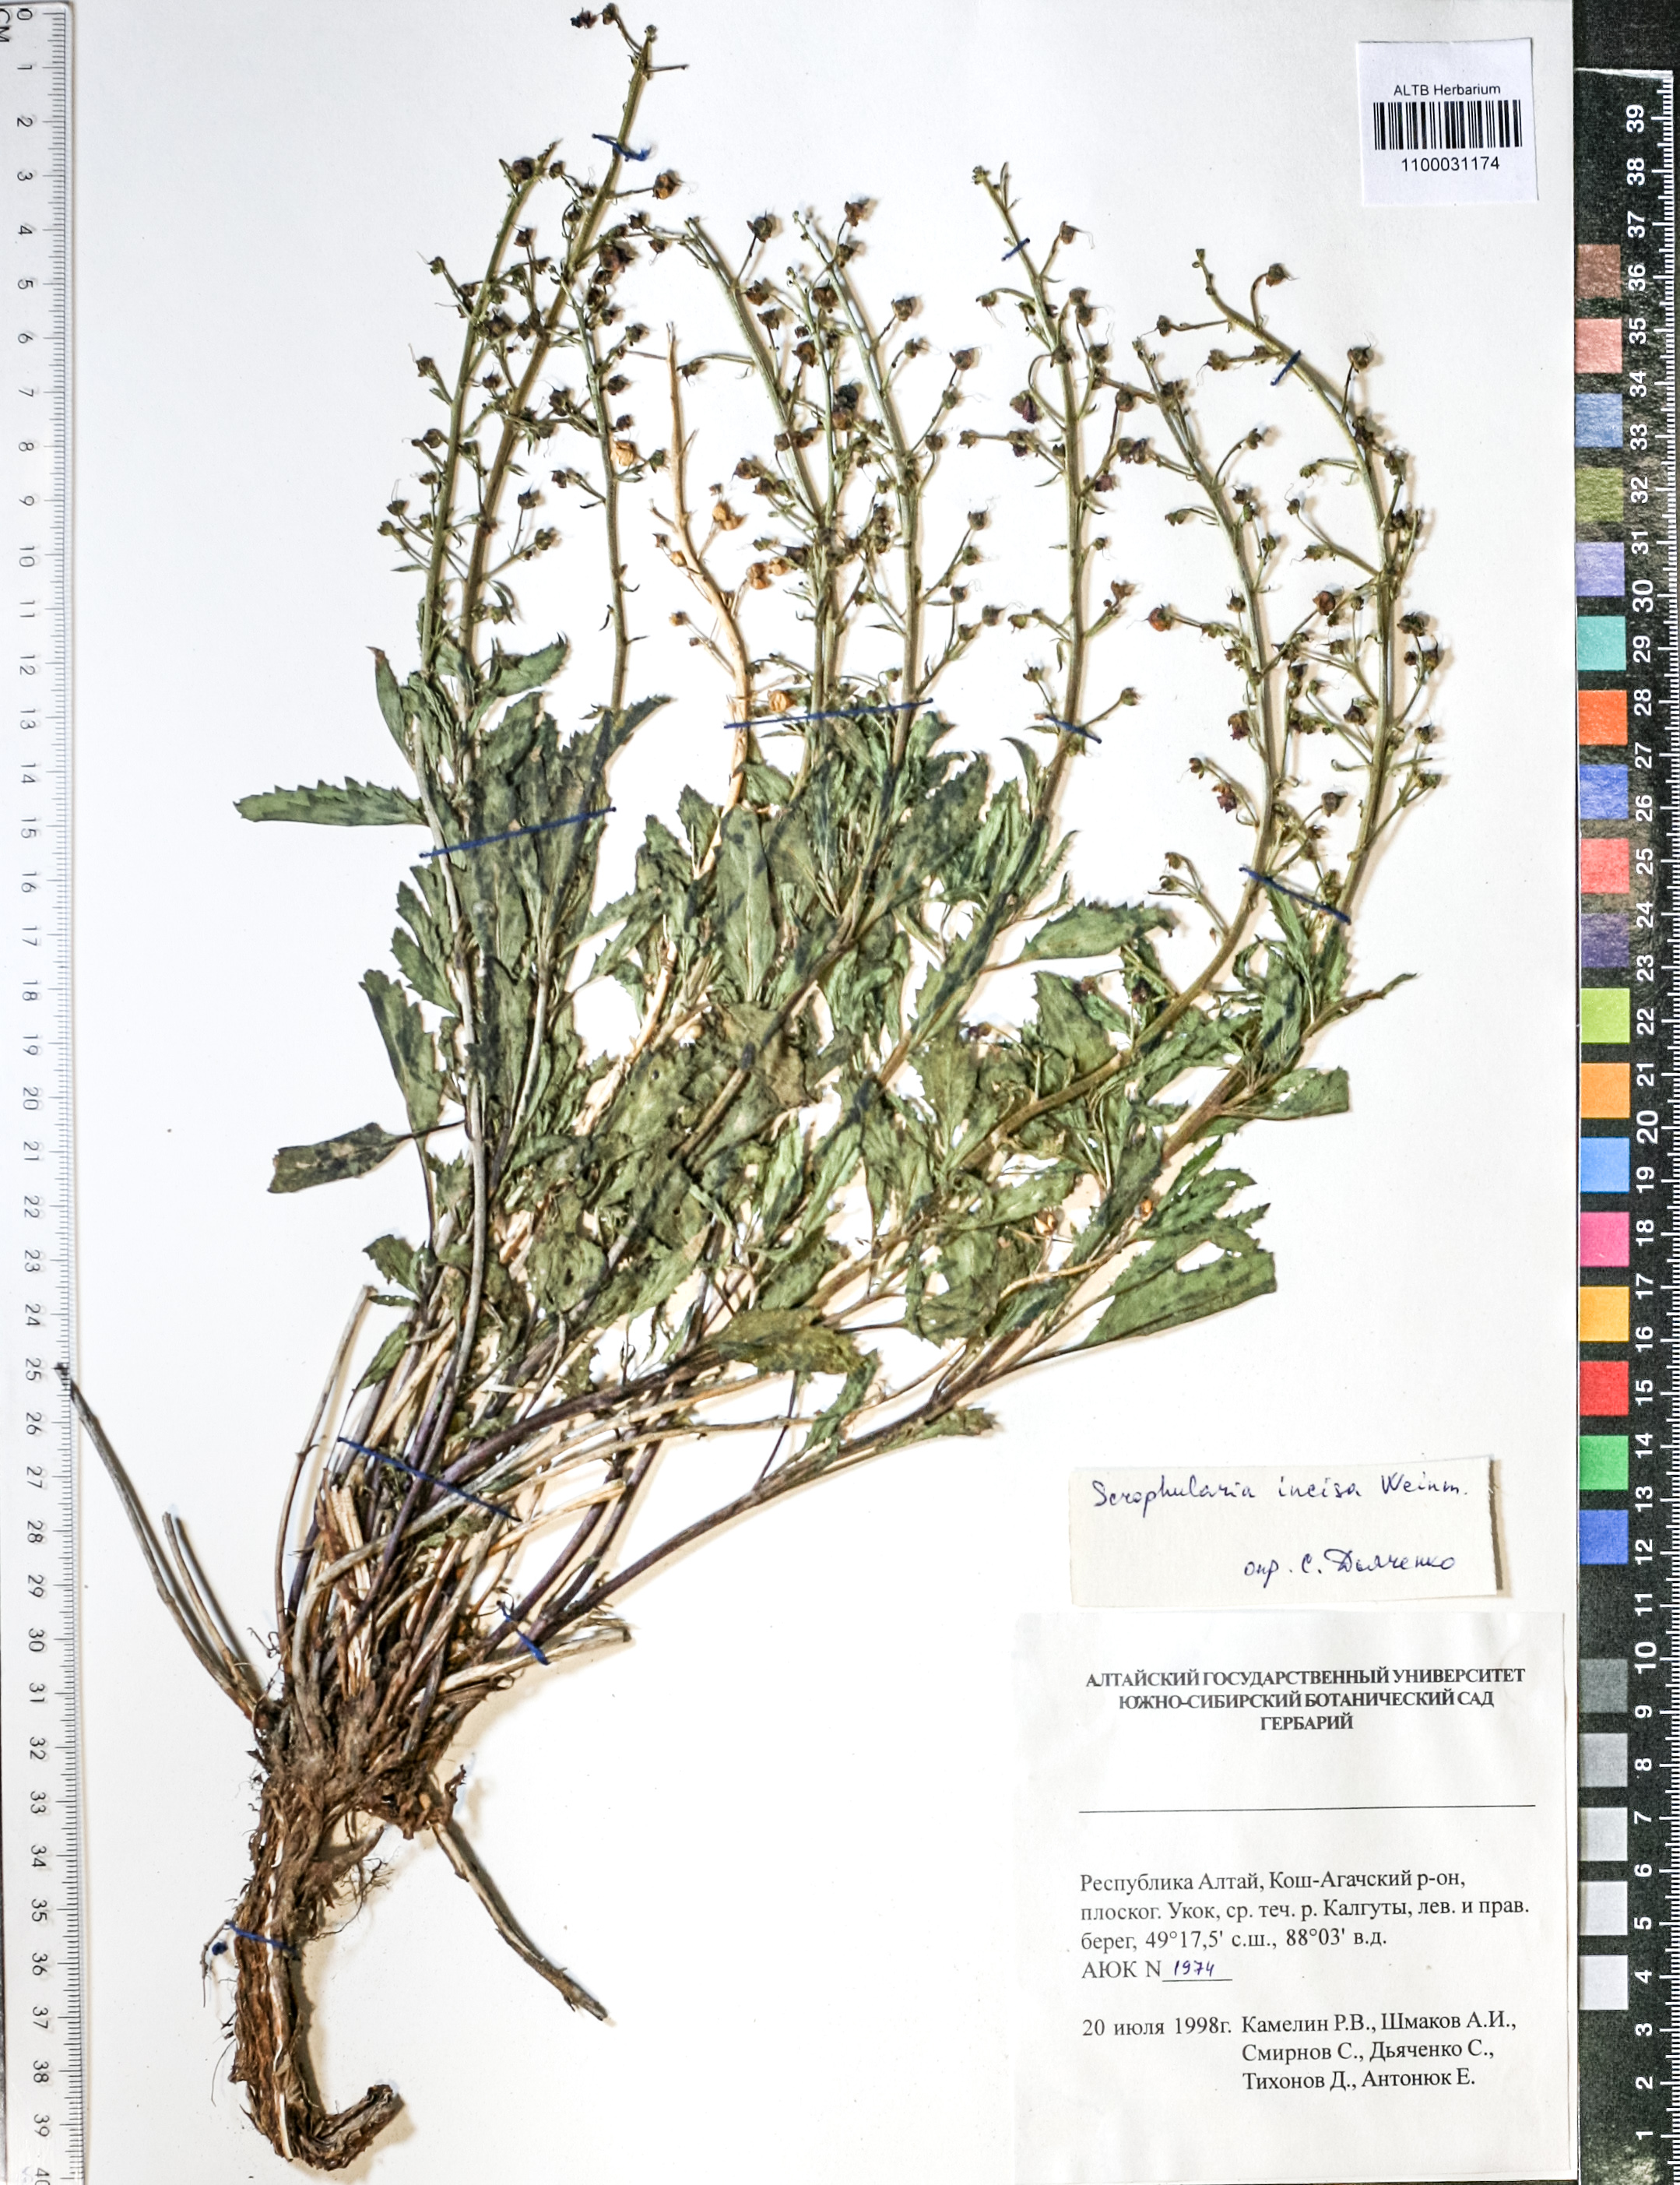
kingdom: Plantae
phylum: Tracheophyta
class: Magnoliopsida
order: Lamiales
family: Scrophulariaceae
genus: Scrophularia
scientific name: Scrophularia incisa
